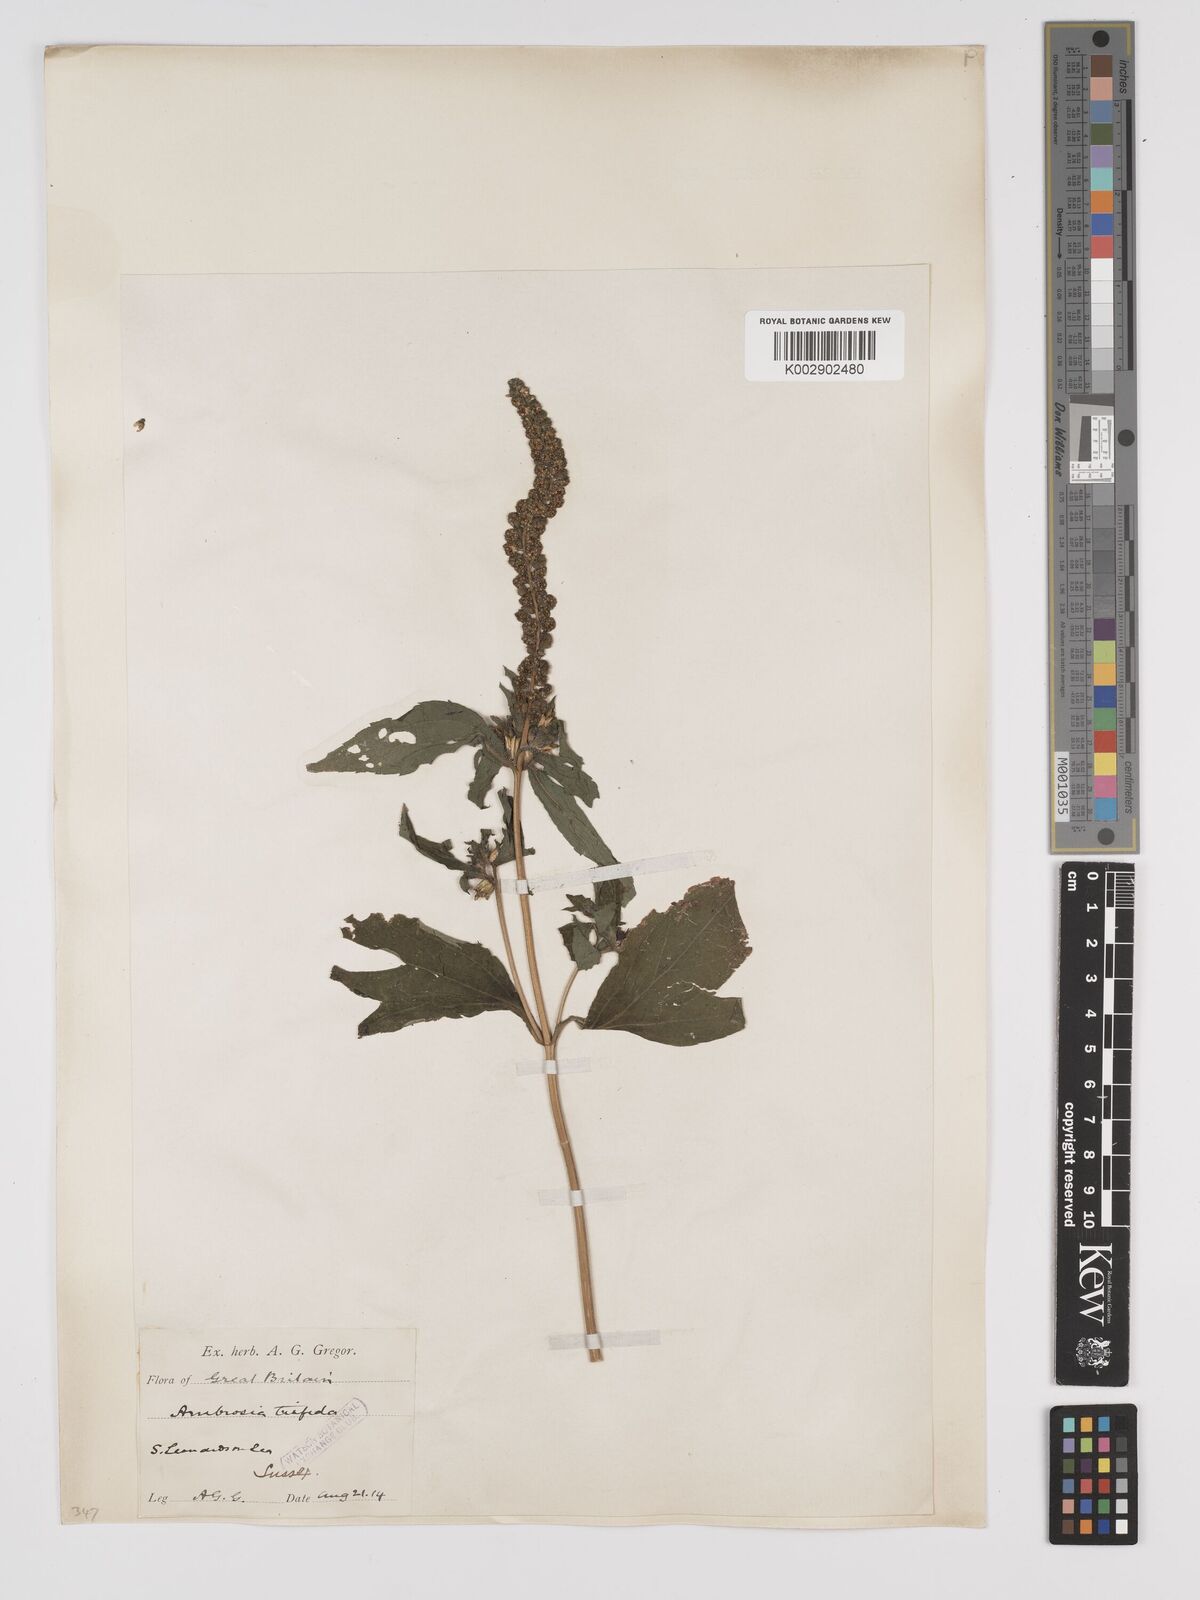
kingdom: Plantae
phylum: Tracheophyta
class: Magnoliopsida
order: Asterales
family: Asteraceae
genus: Ambrosia
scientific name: Ambrosia trifida
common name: Giant ragweed
